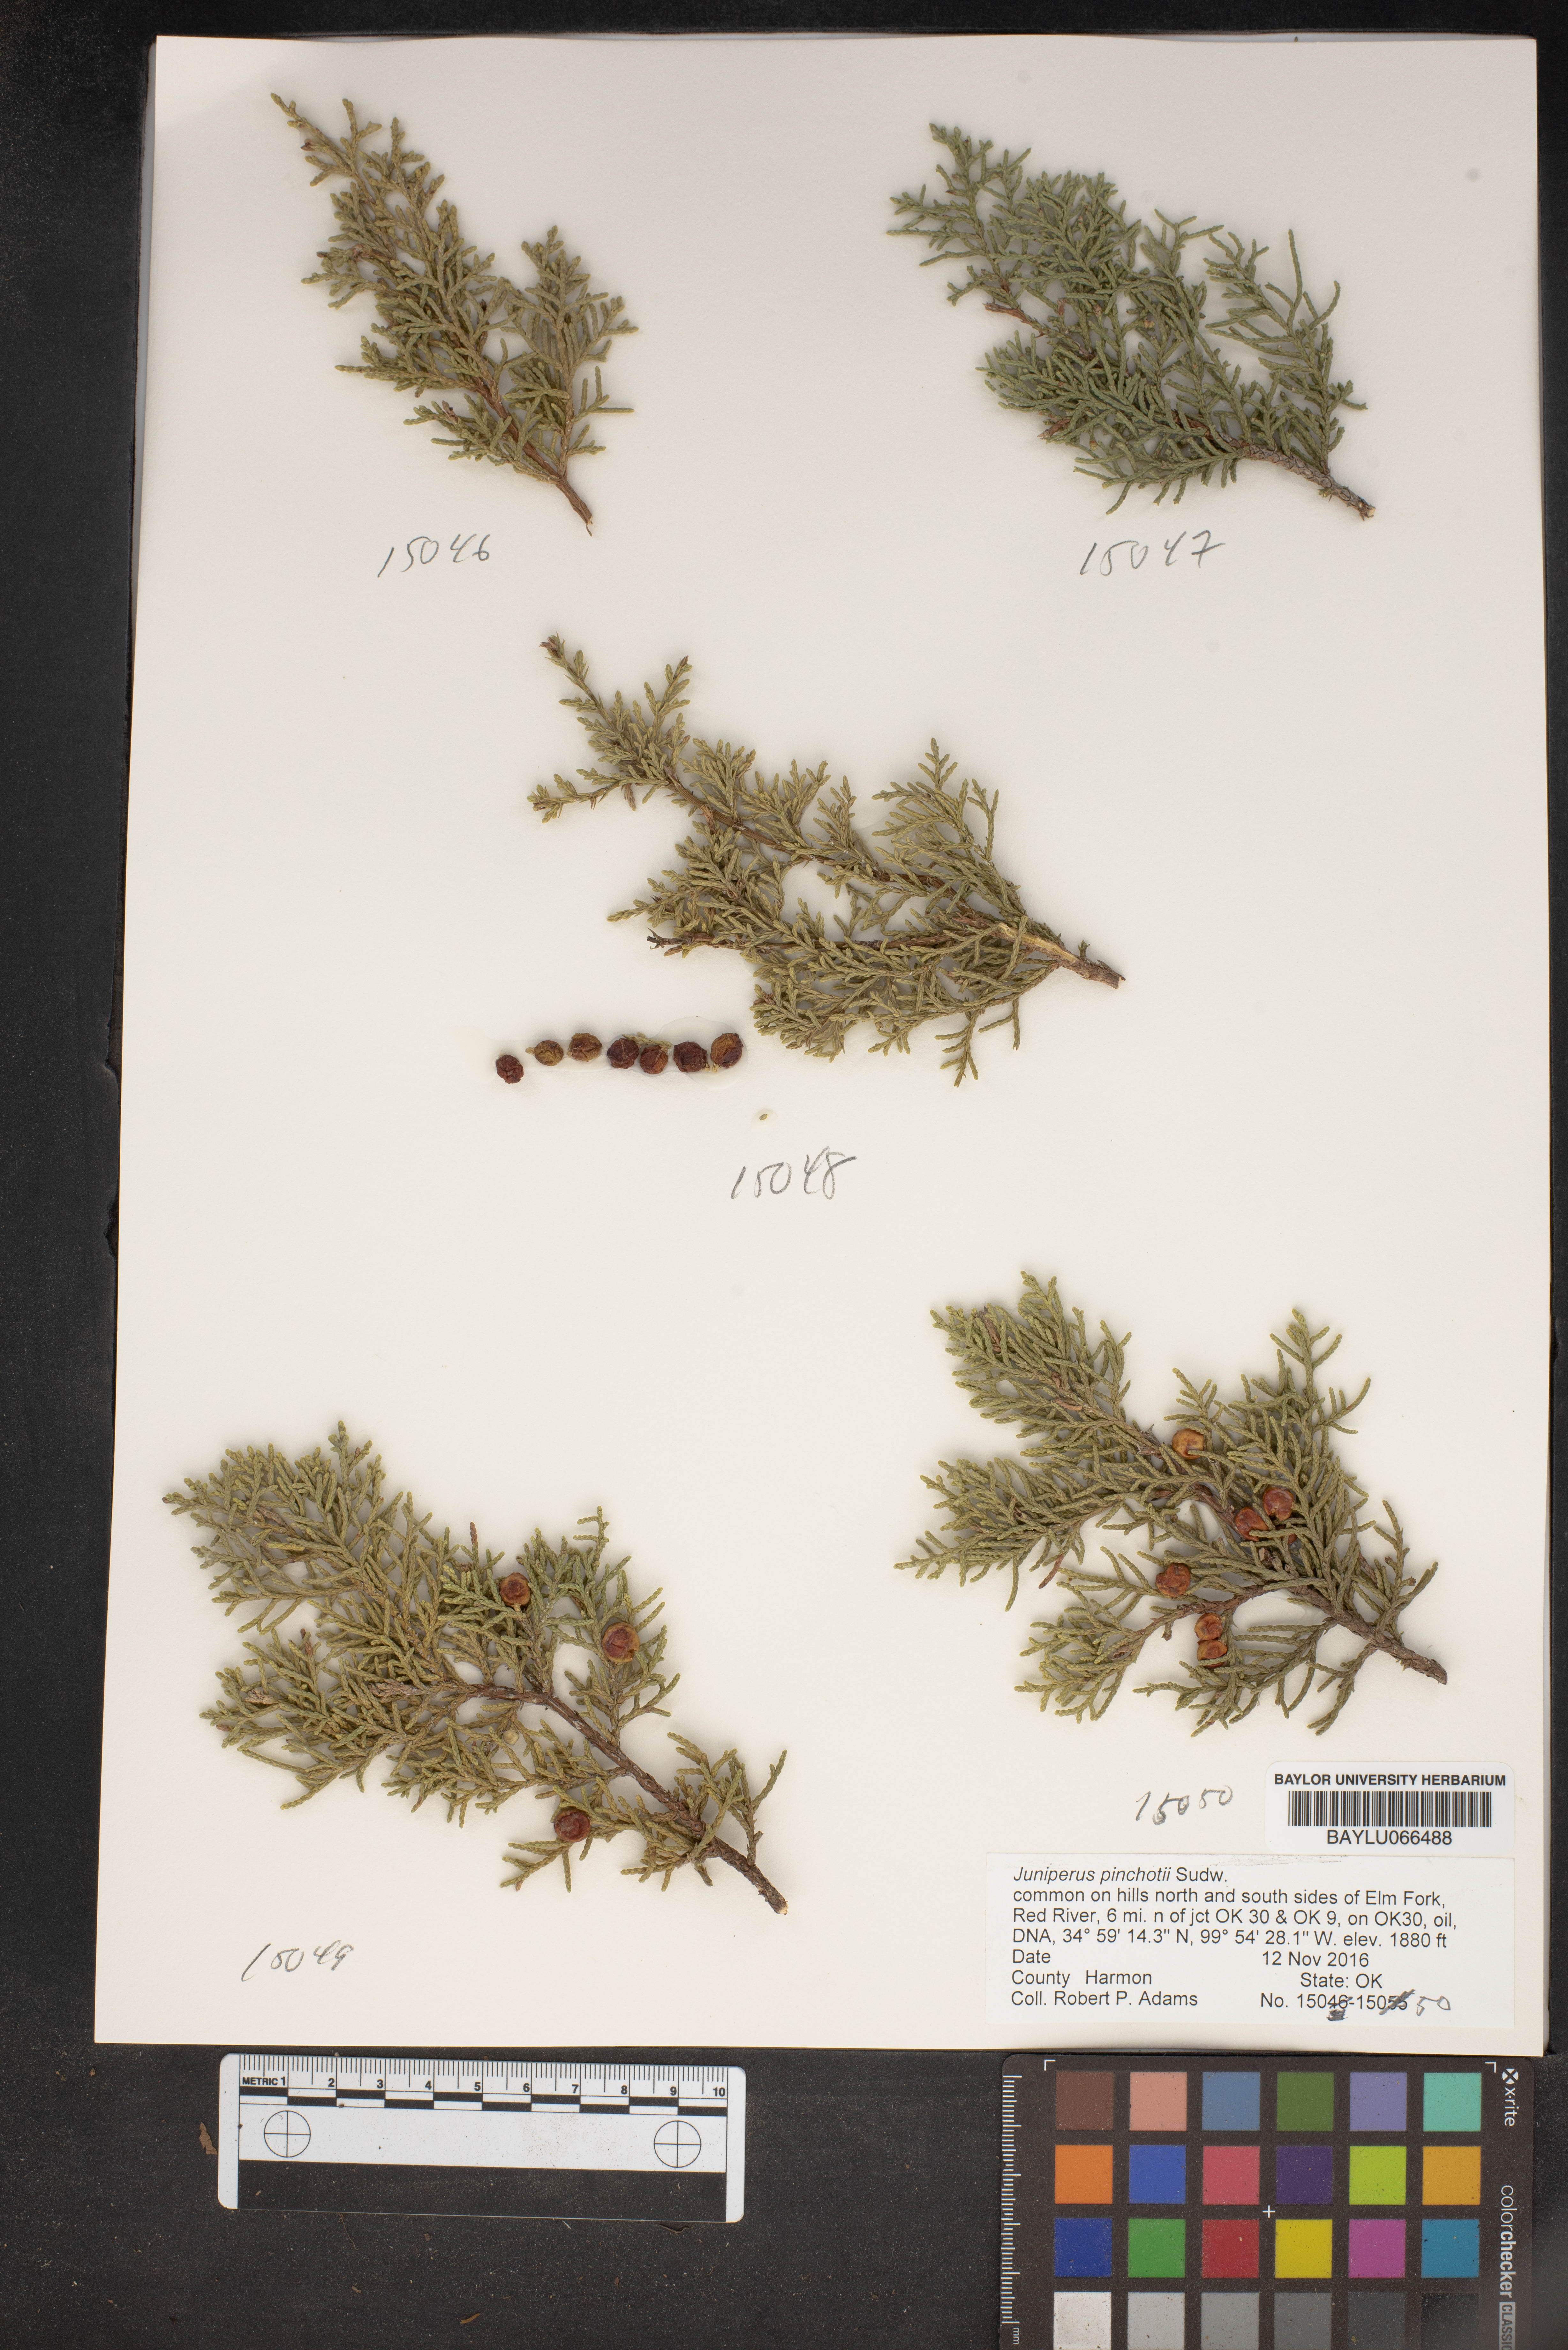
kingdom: Plantae
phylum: Tracheophyta
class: Pinopsida
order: Pinales
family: Cupressaceae
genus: Juniperus
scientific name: Juniperus pinchotii
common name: Pinchot juniper
